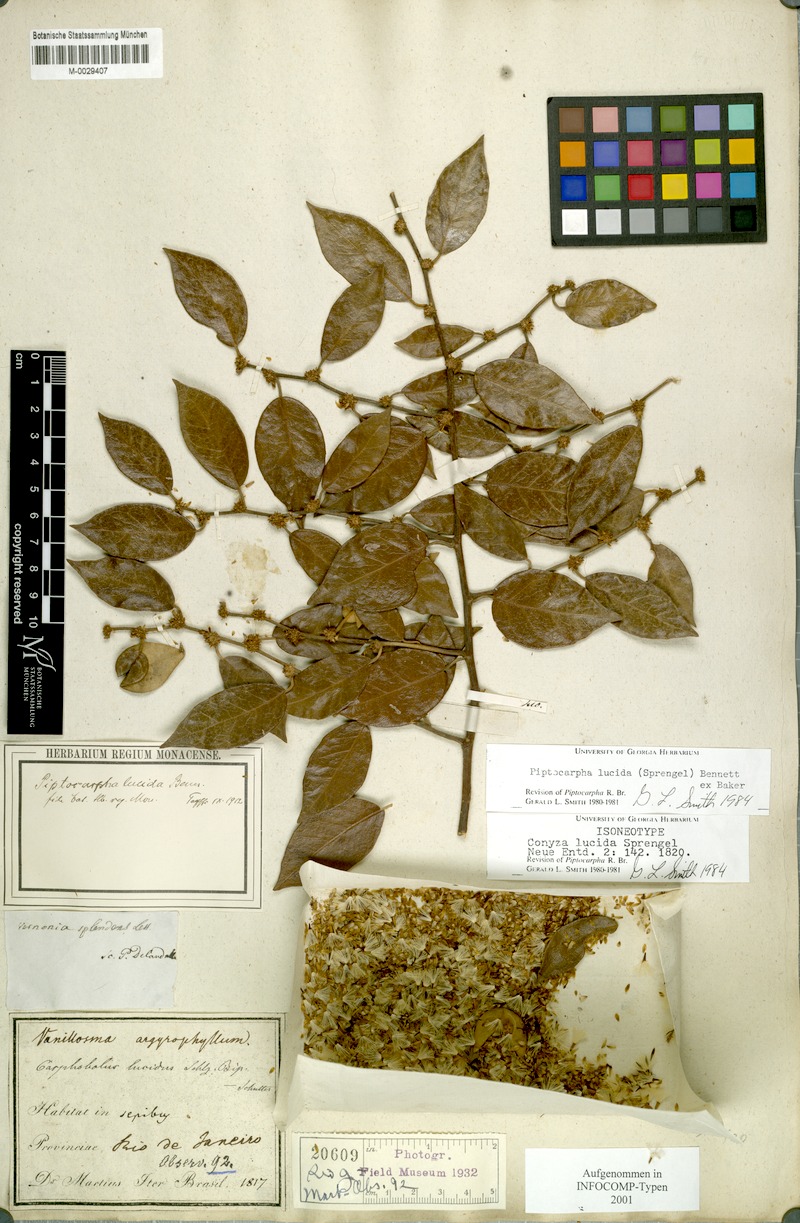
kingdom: Plantae
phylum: Tracheophyta
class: Magnoliopsida
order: Asterales
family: Asteraceae
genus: Piptocarpha
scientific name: Piptocarpha lucida
